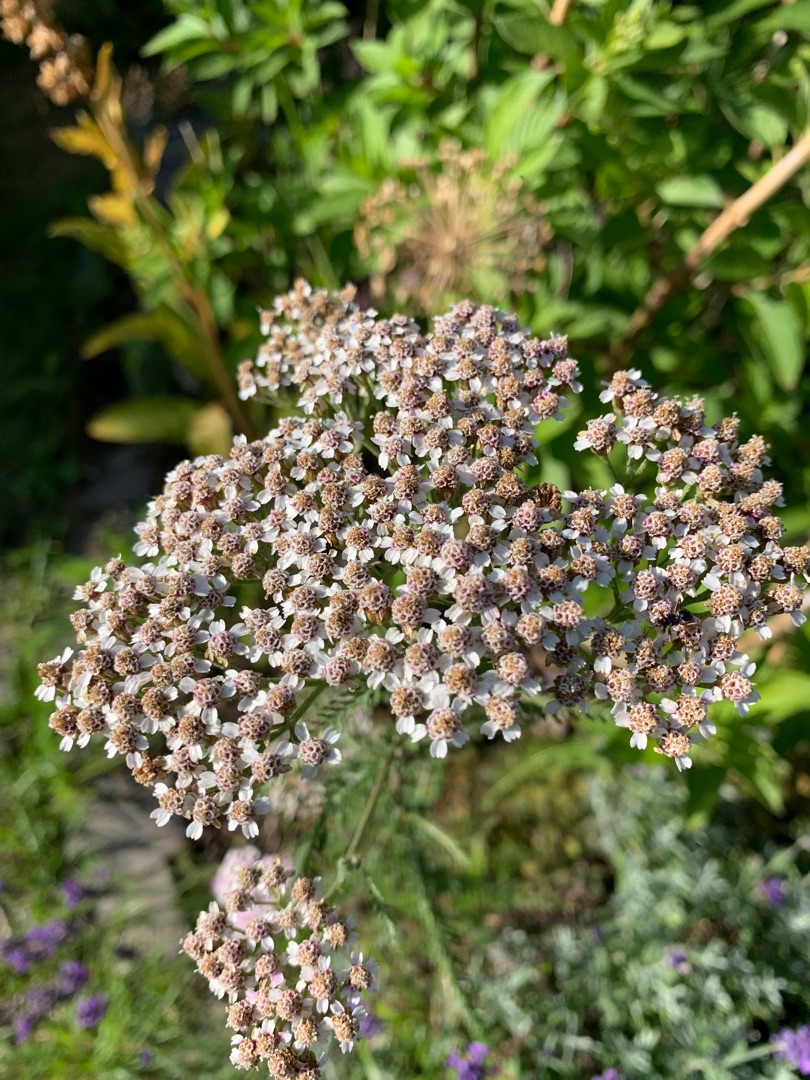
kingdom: Plantae
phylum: Tracheophyta
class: Magnoliopsida
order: Asterales
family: Asteraceae
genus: Achillea
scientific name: Achillea millefolium
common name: Almindelig røllike
